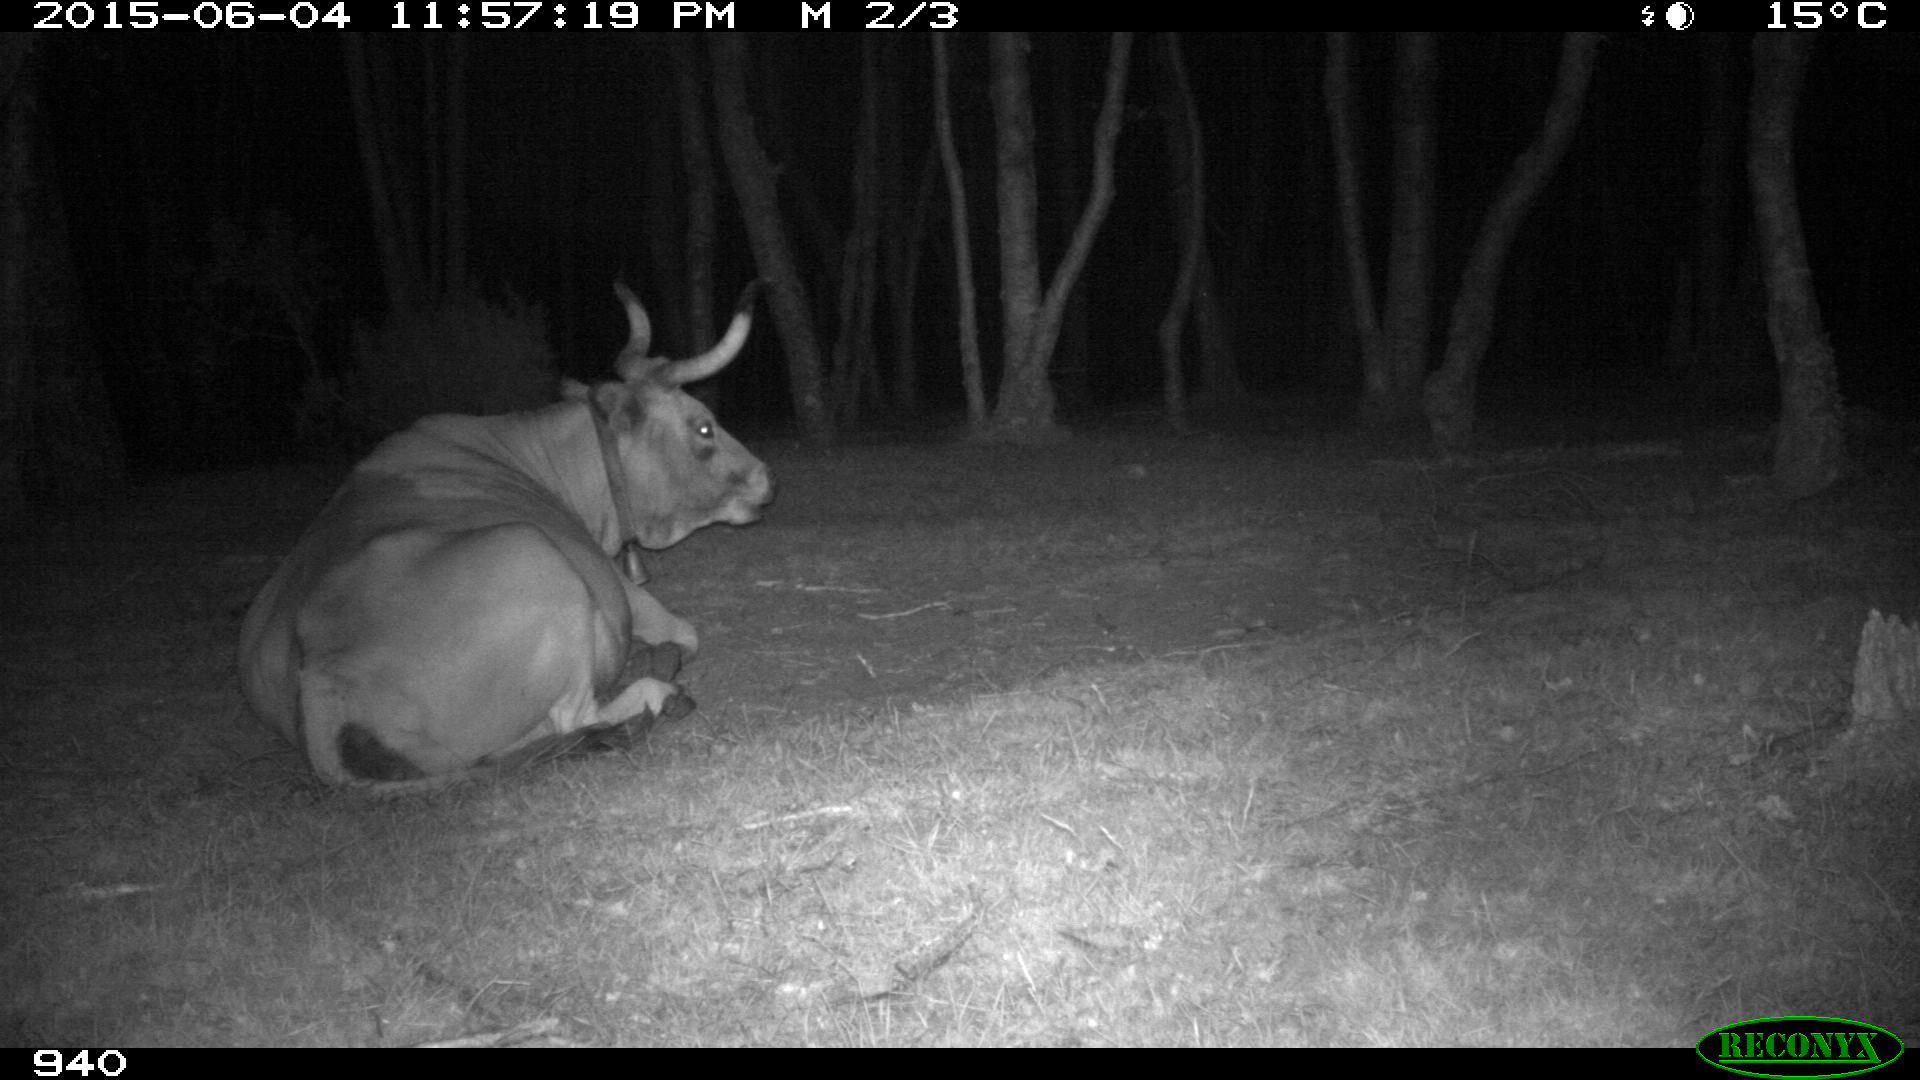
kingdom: Animalia
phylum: Chordata
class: Mammalia
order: Artiodactyla
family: Bovidae
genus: Bos
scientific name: Bos taurus
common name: Domesticated cattle
